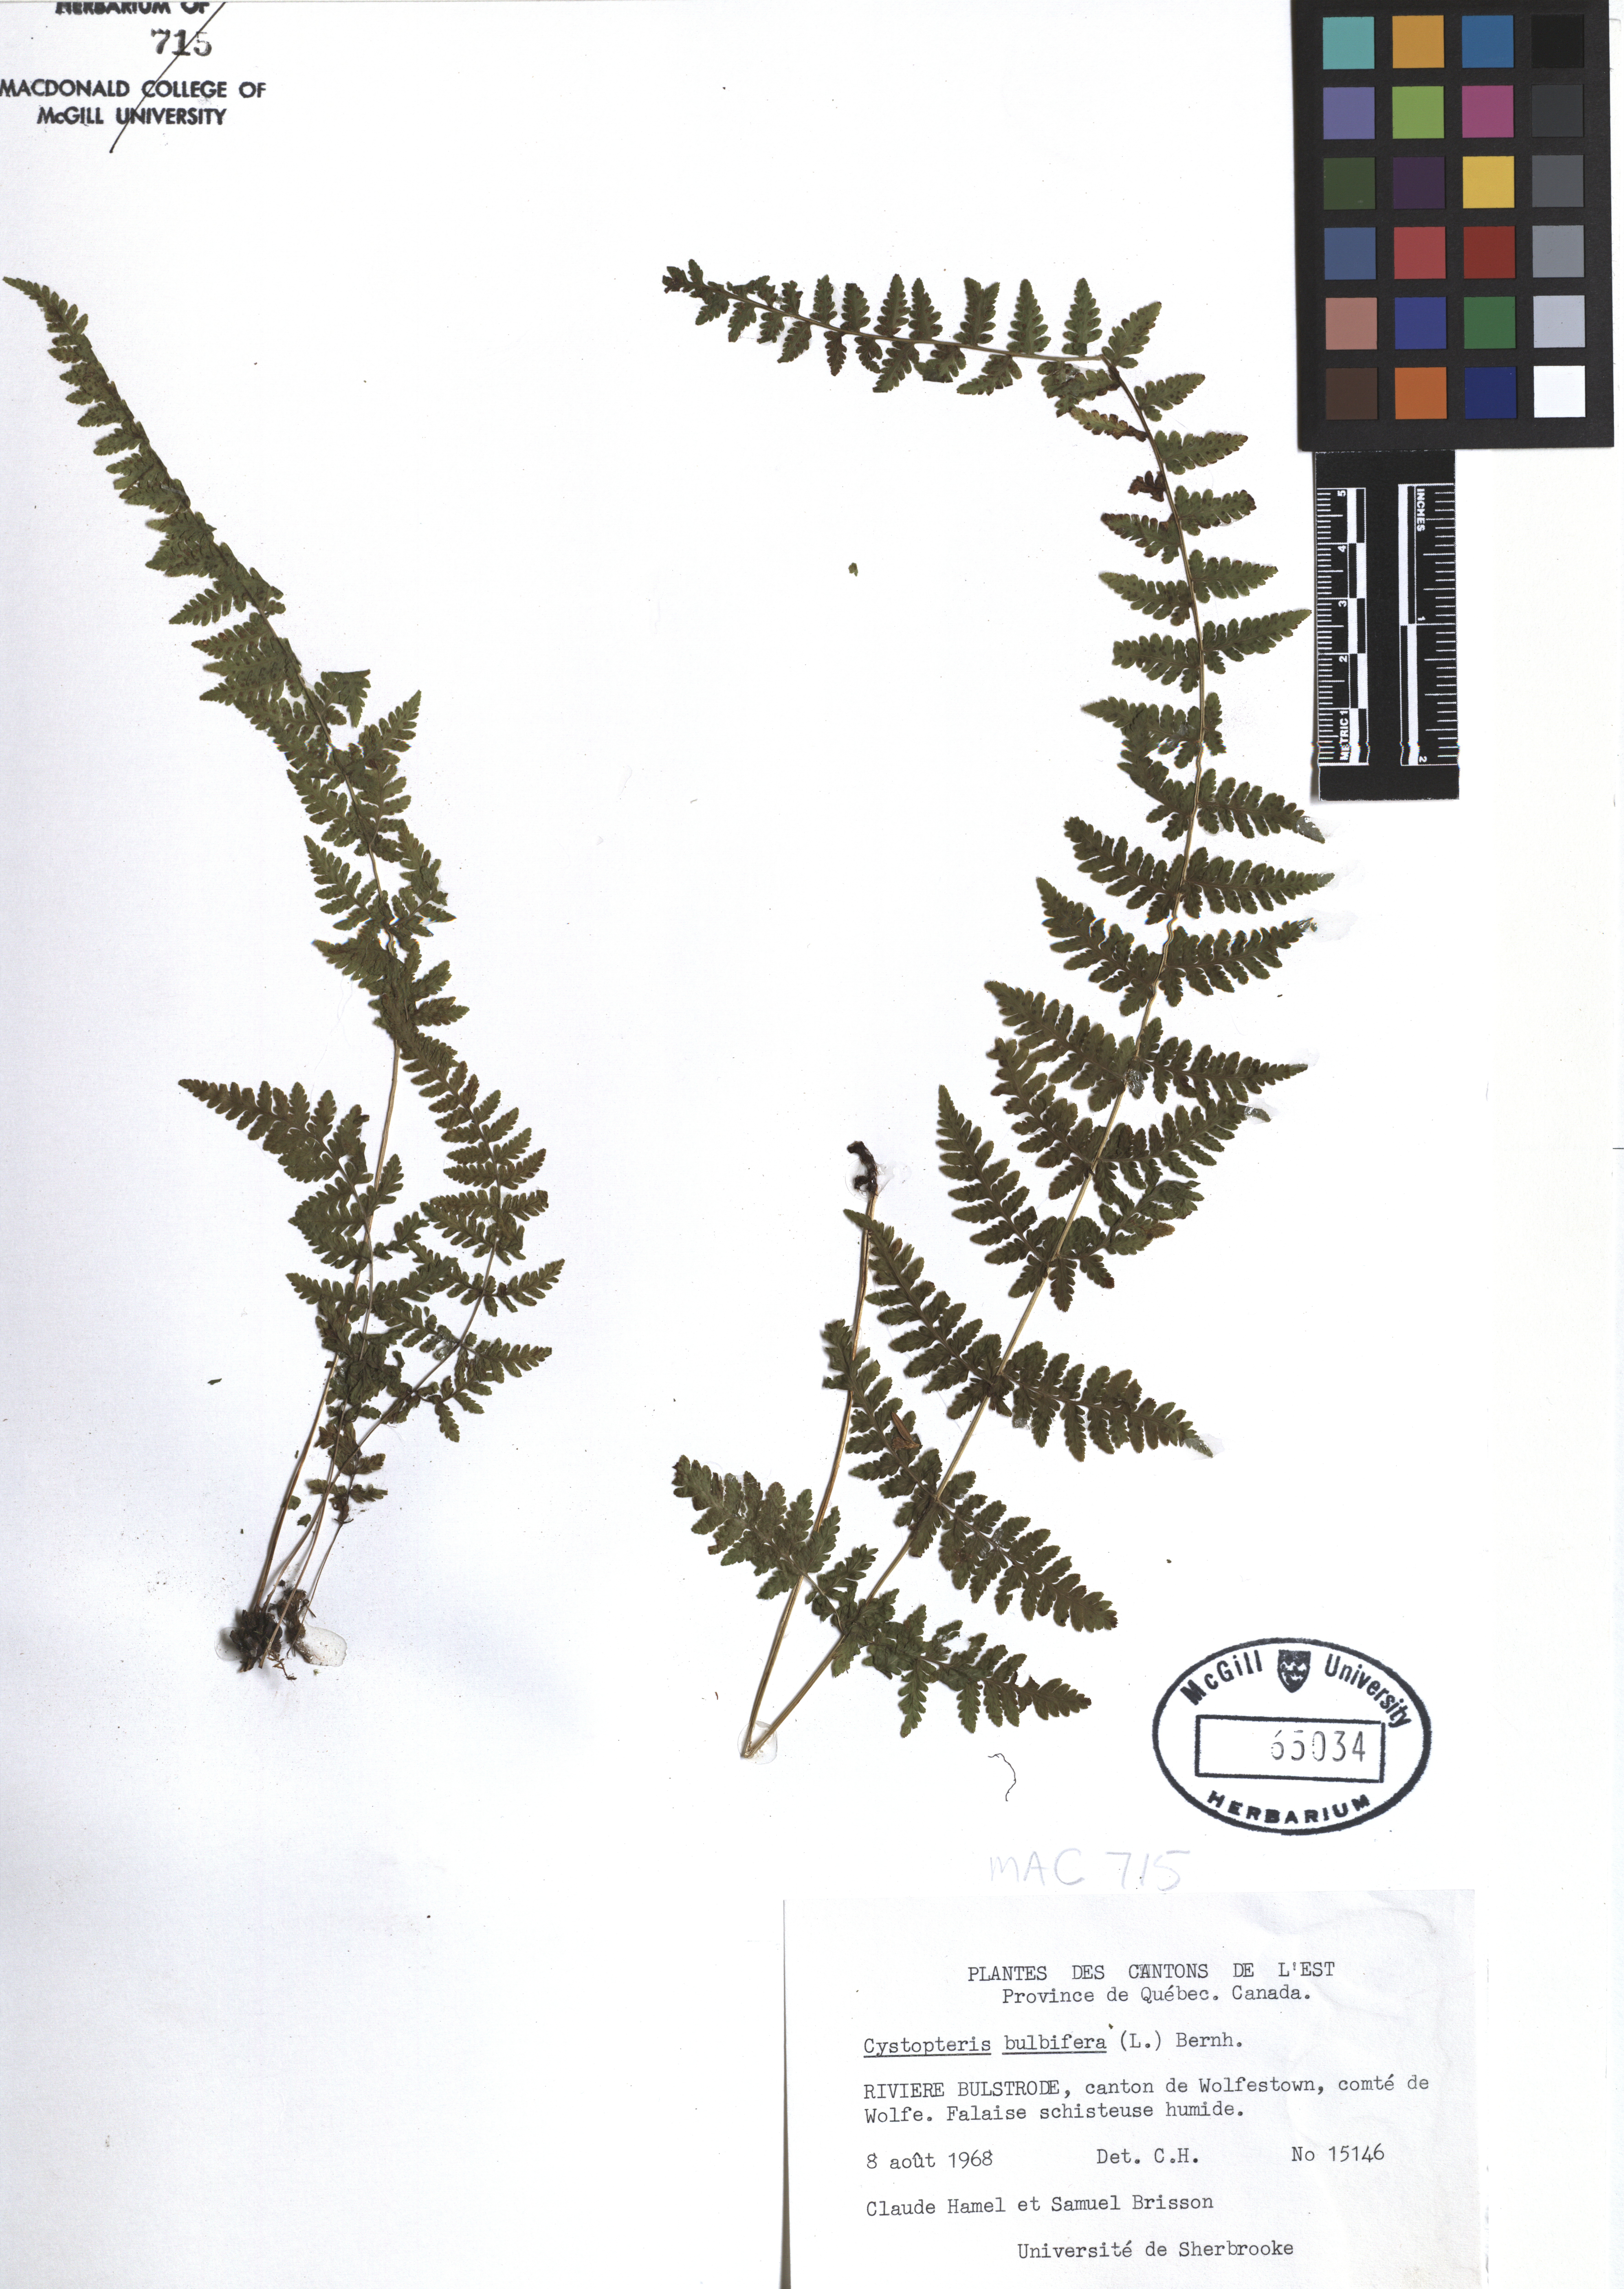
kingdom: Plantae
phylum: Tracheophyta
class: Polypodiopsida
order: Polypodiales
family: Cystopteridaceae
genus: Cystopteris
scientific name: Cystopteris bulbifera
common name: Bulblet bladder fern
